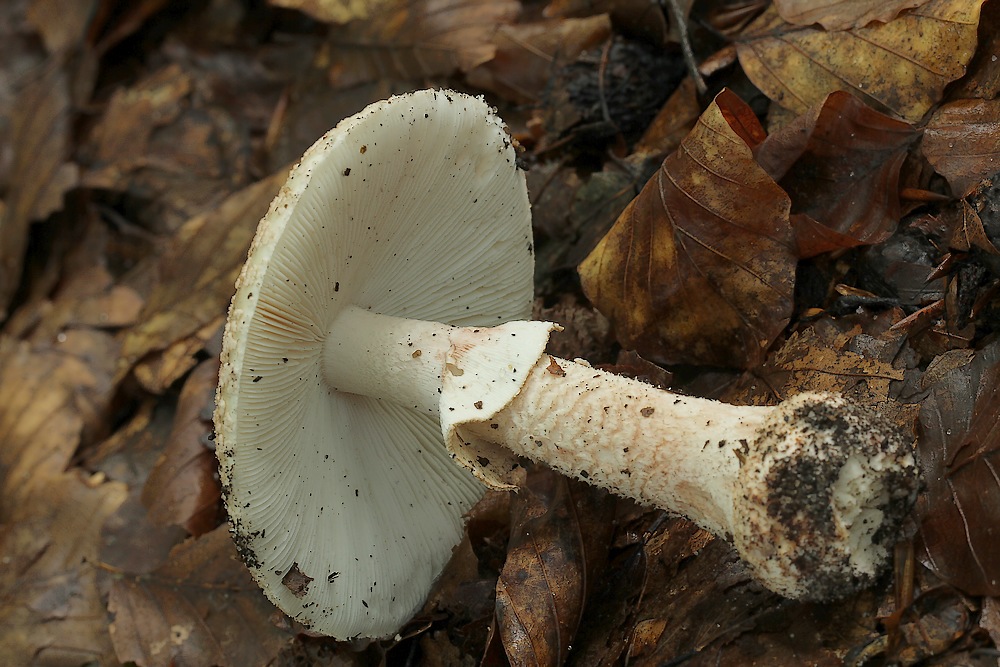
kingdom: Fungi
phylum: Basidiomycota
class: Agaricomycetes
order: Agaricales
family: Amanitaceae
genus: Amanita
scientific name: Amanita rubescens
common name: rødmende fluesvamp
